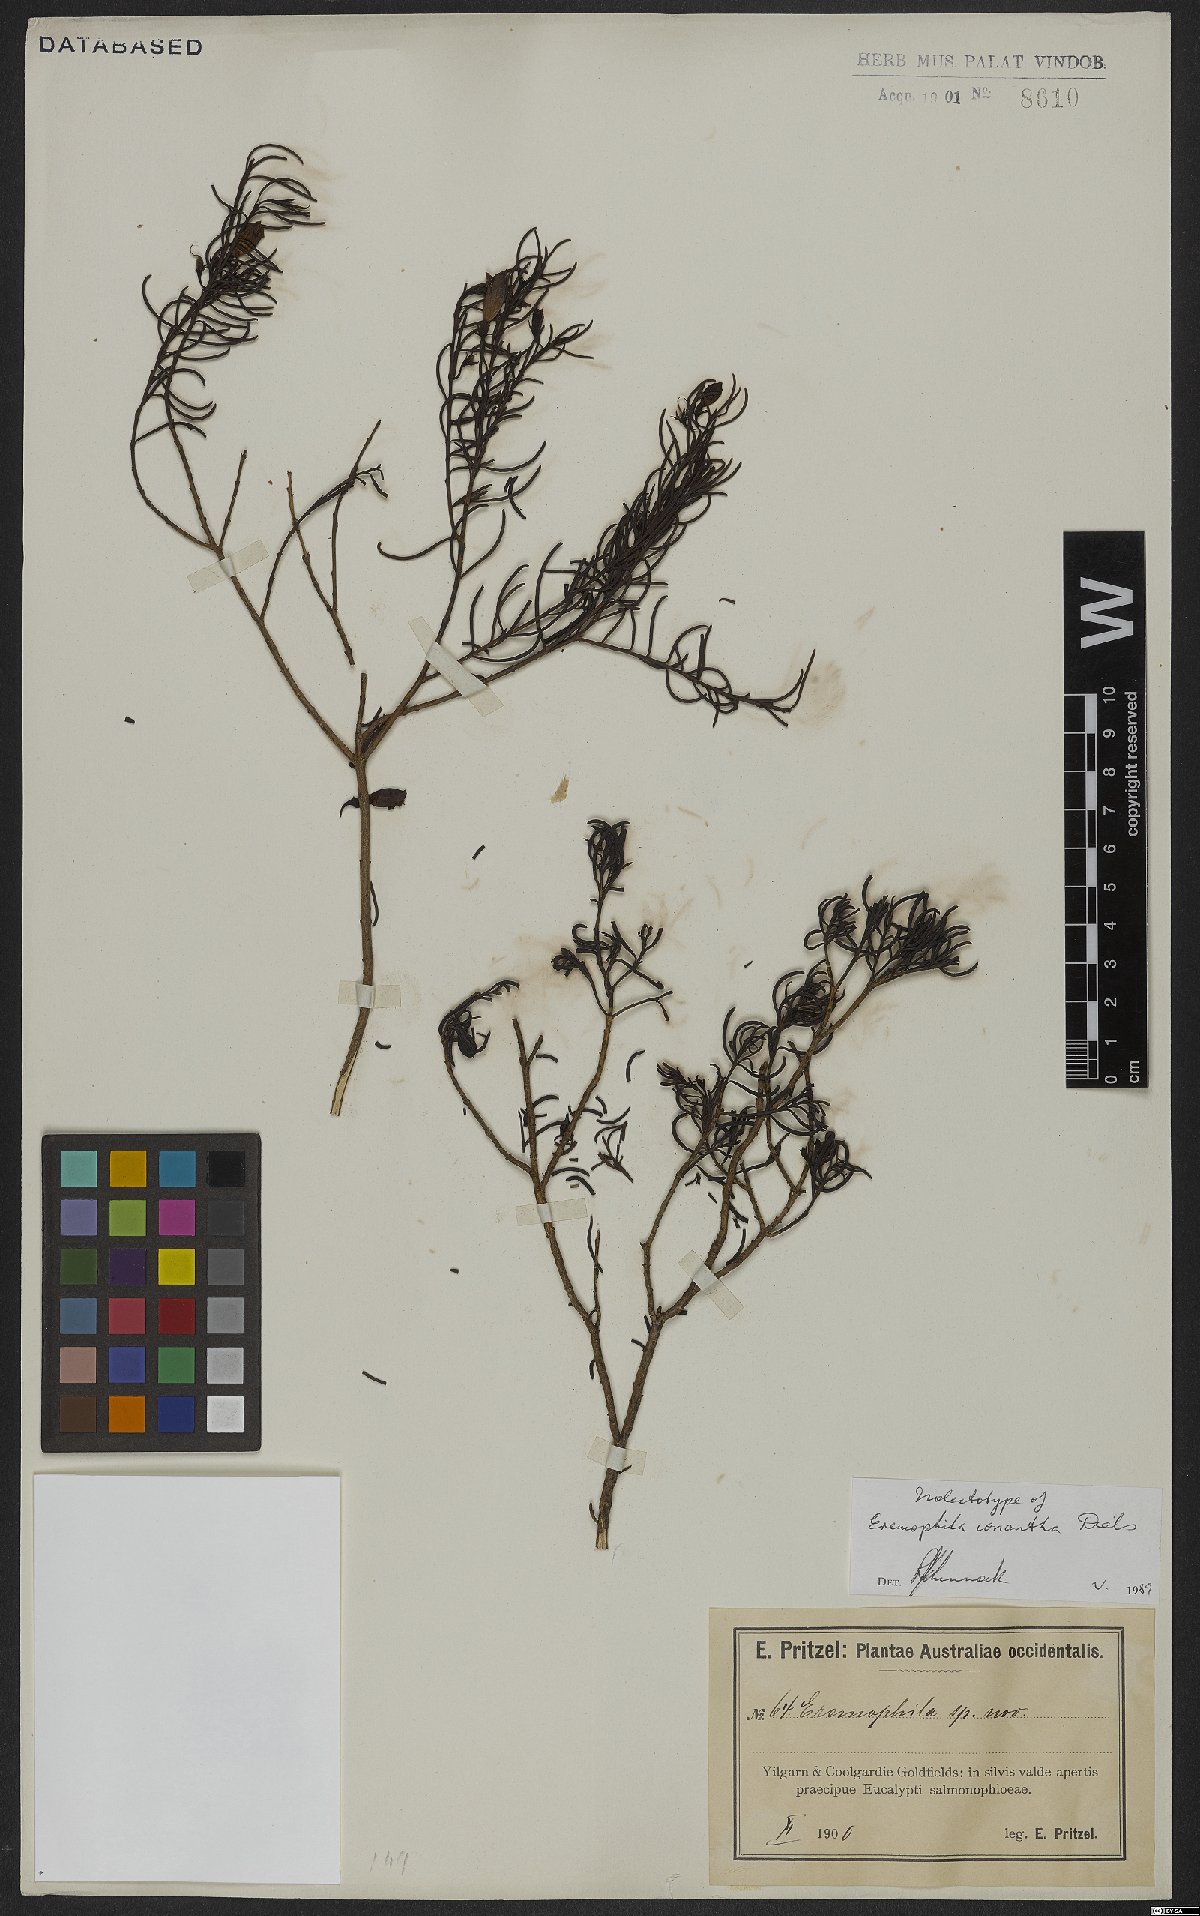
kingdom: Plantae
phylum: Tracheophyta
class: Magnoliopsida
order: Lamiales
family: Scrophulariaceae
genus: Eremophila
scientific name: Eremophila ionantha
